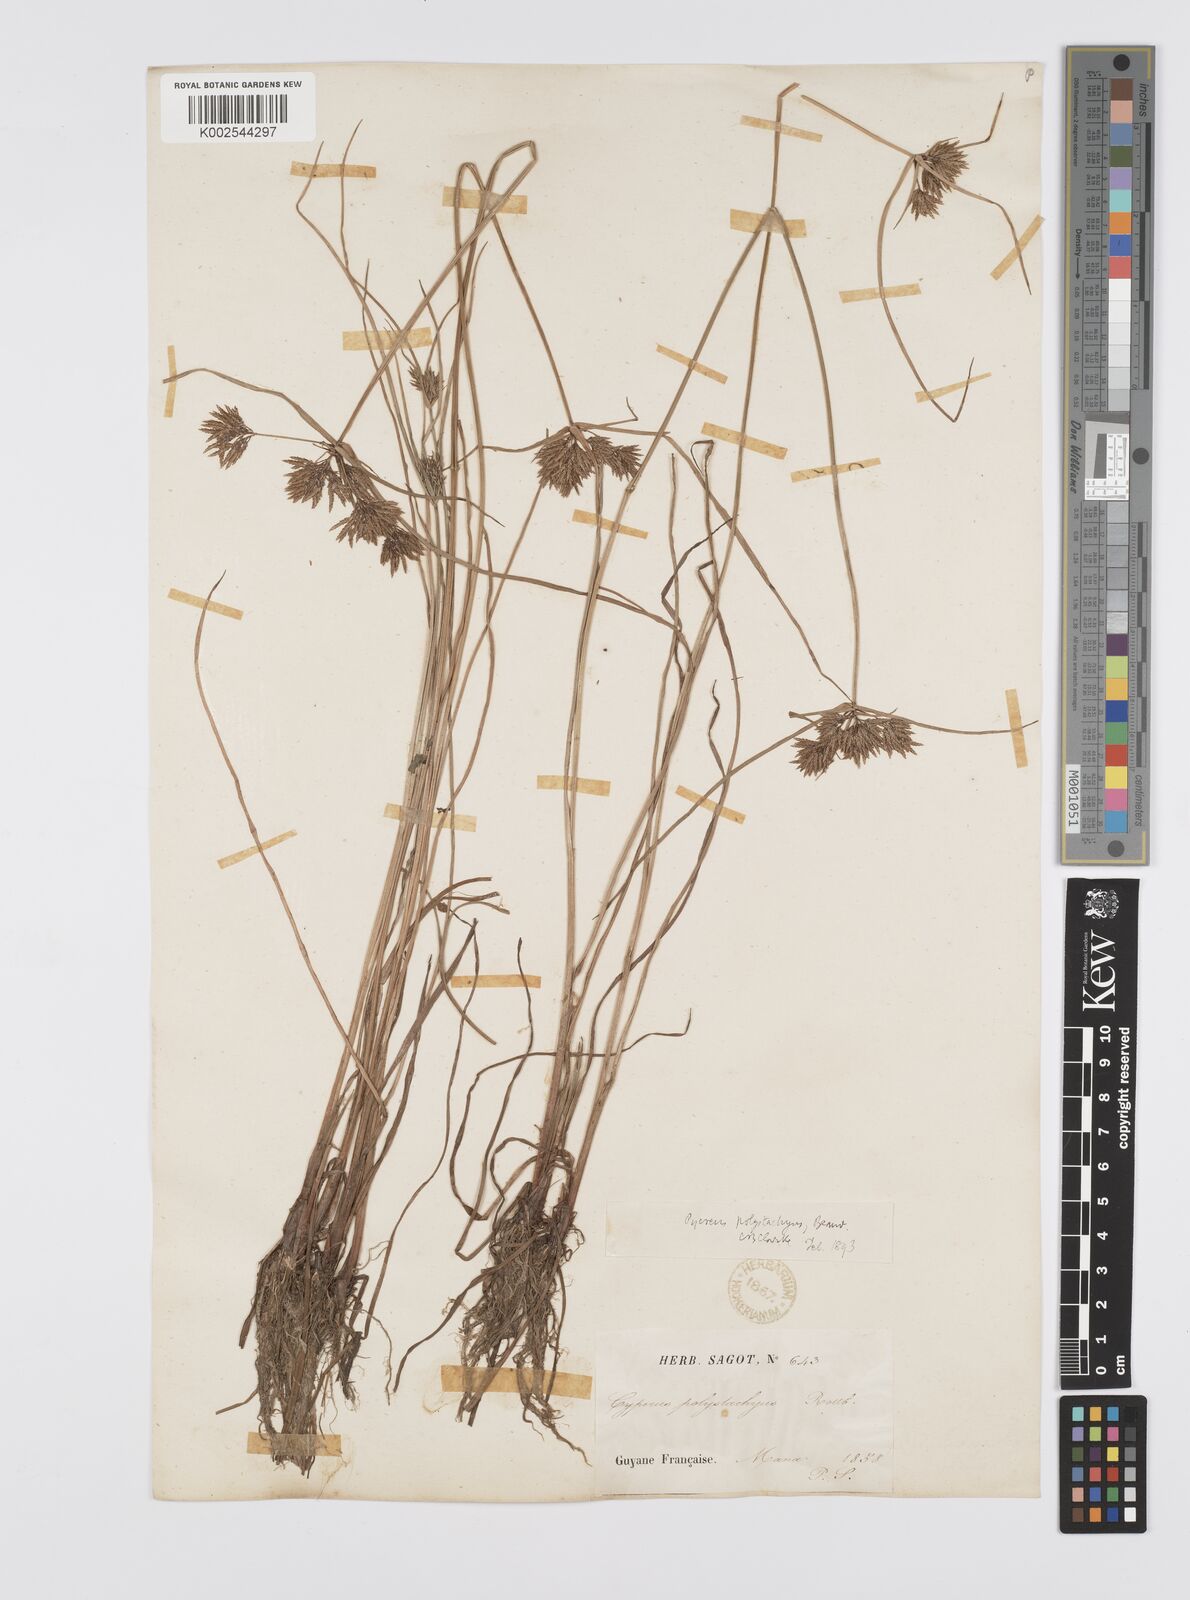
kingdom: Plantae
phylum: Tracheophyta
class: Liliopsida
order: Poales
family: Cyperaceae
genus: Cyperus
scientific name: Cyperus polystachyos
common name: Bunchy flat sedge
